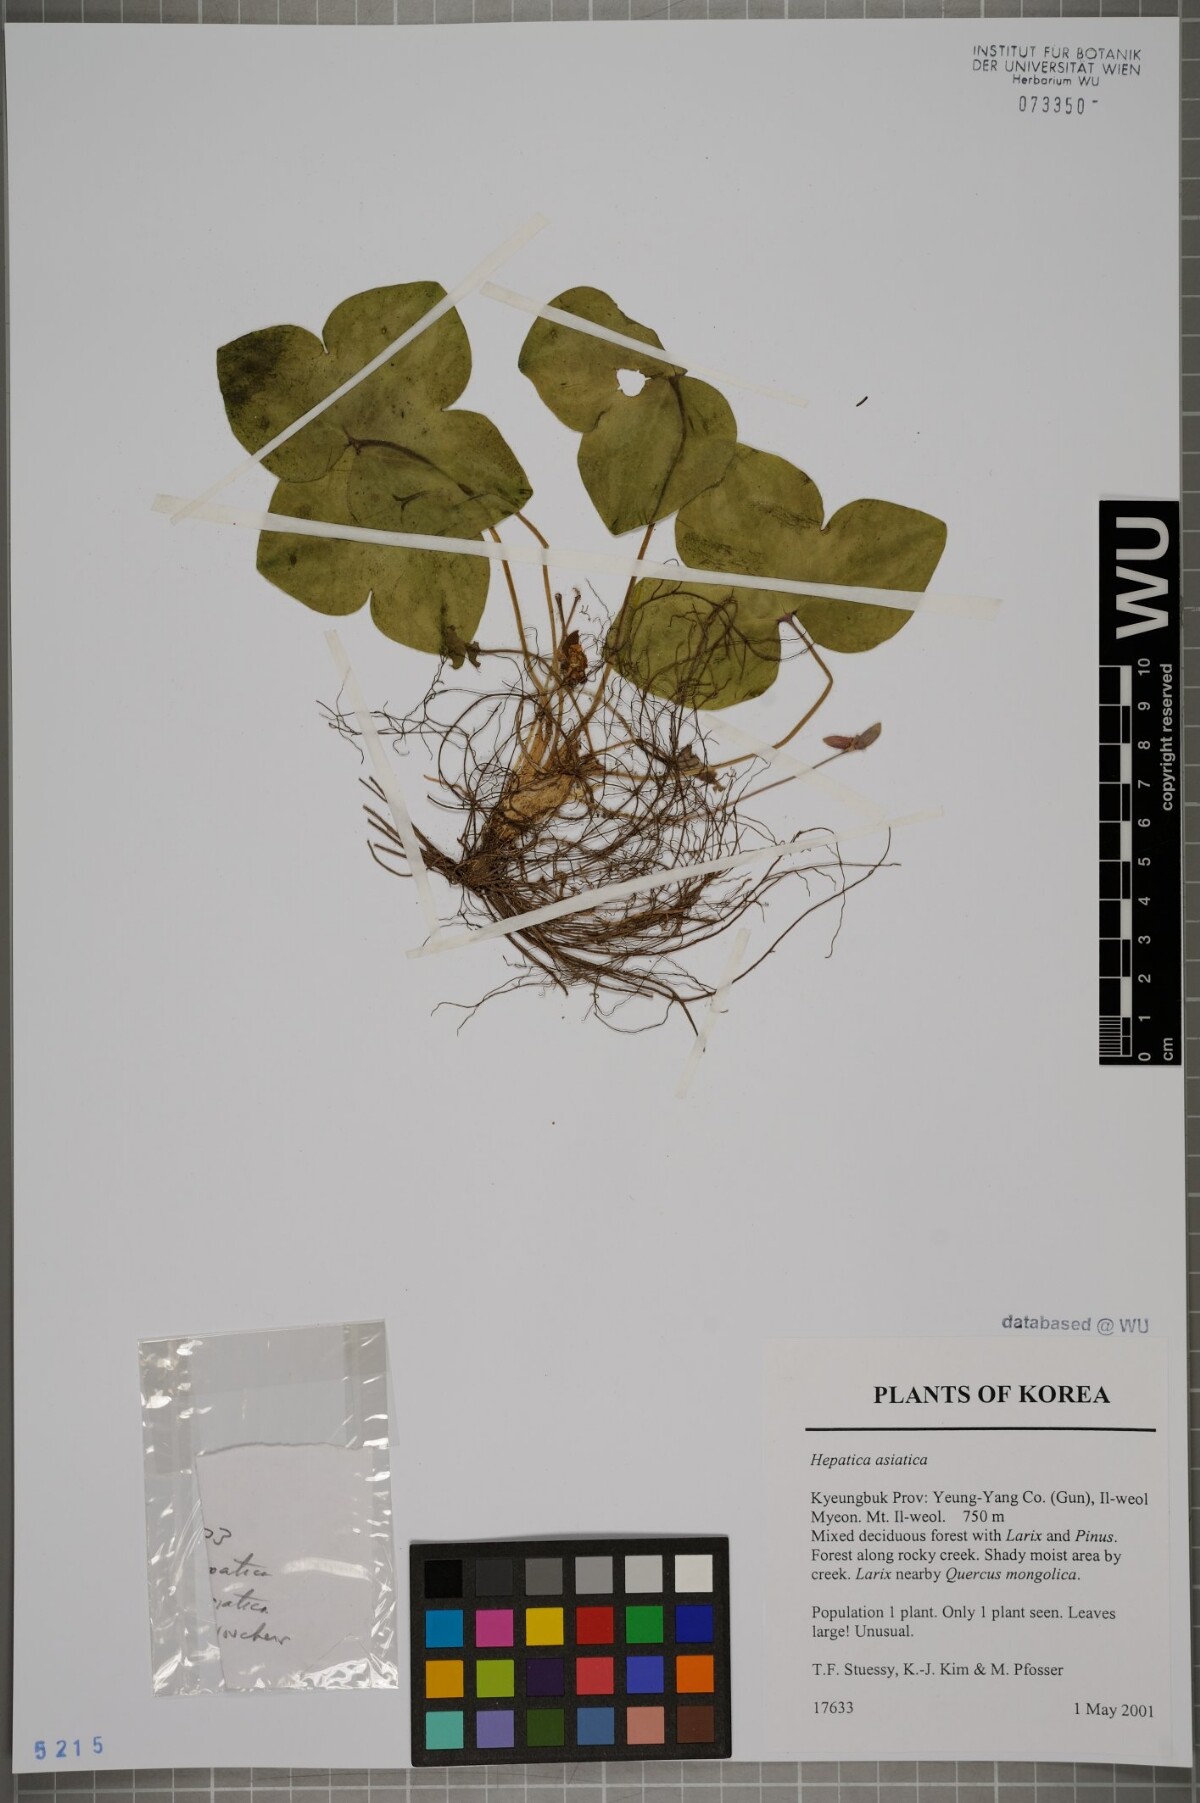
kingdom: Plantae
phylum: Tracheophyta
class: Magnoliopsida
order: Ranunculales
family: Ranunculaceae
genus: Hepatica
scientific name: Hepatica asiatica
